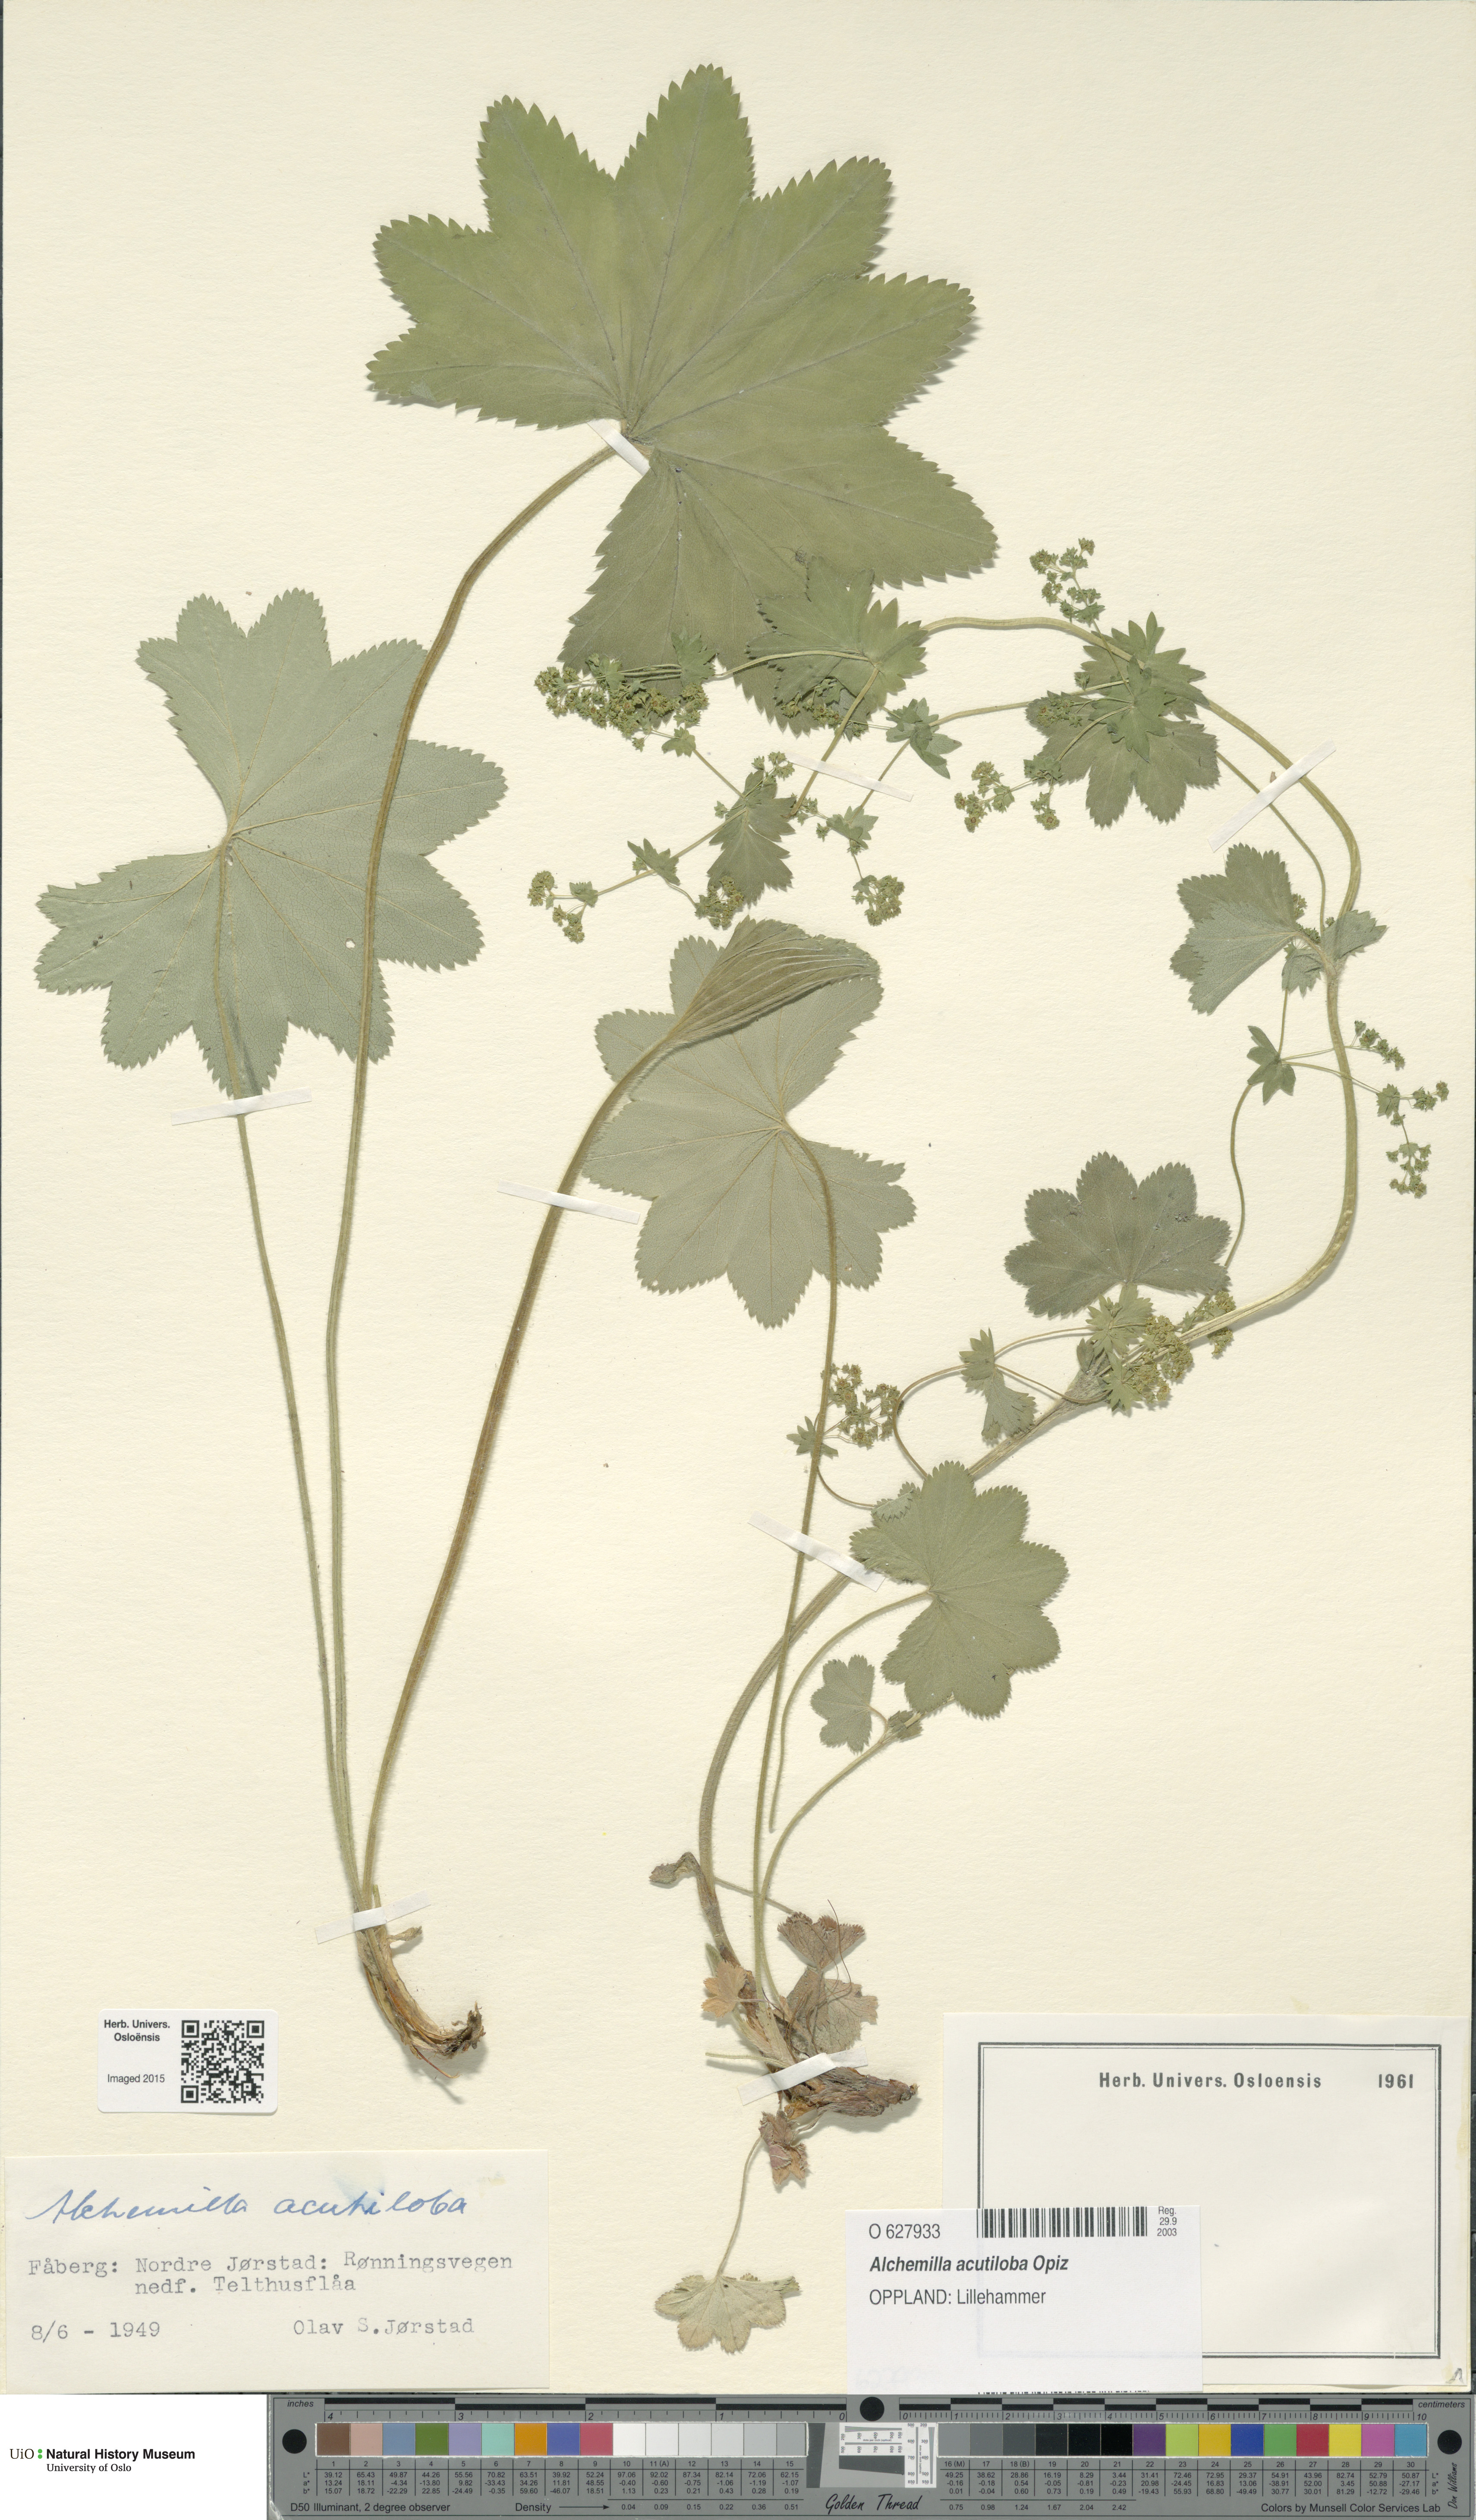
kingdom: Plantae
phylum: Tracheophyta
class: Magnoliopsida
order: Rosales
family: Rosaceae
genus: Alchemilla
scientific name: Alchemilla vulgaris
